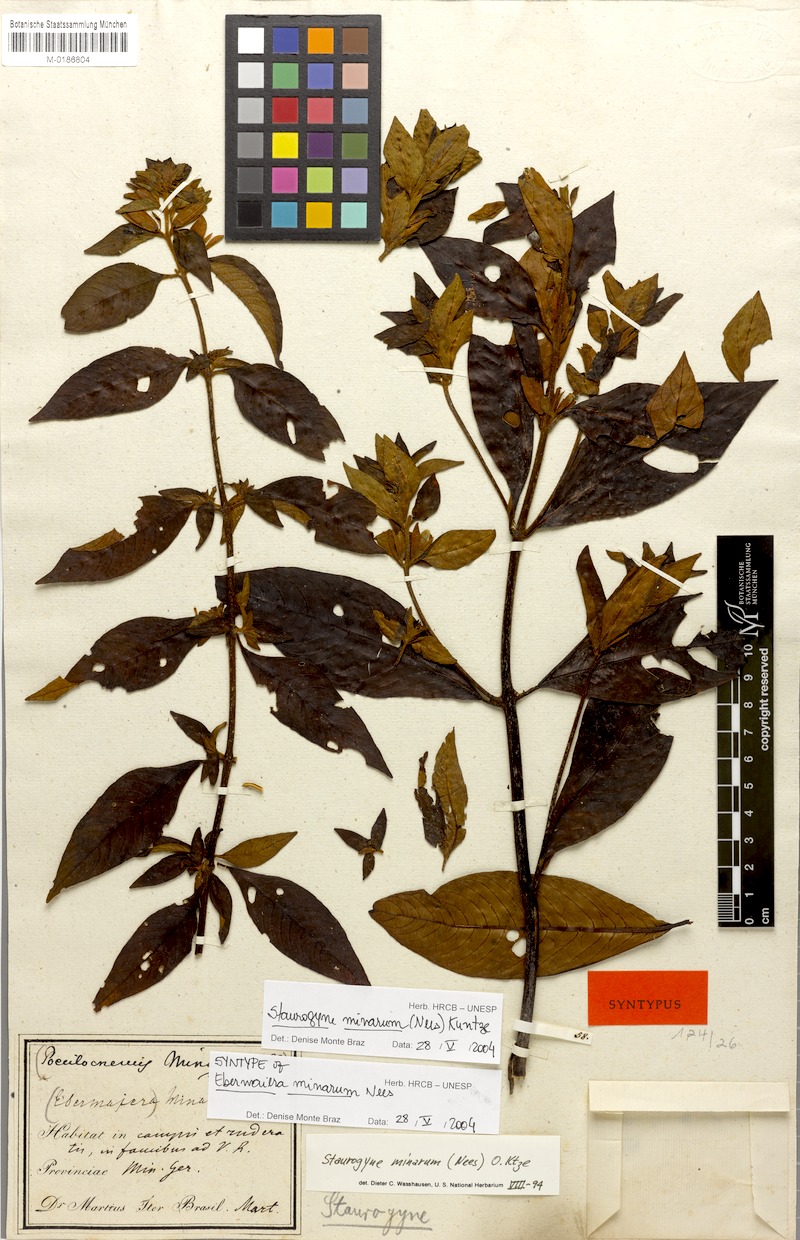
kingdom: Plantae
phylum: Tracheophyta
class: Magnoliopsida
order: Lamiales
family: Acanthaceae
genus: Staurogyne
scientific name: Staurogyne minarum
